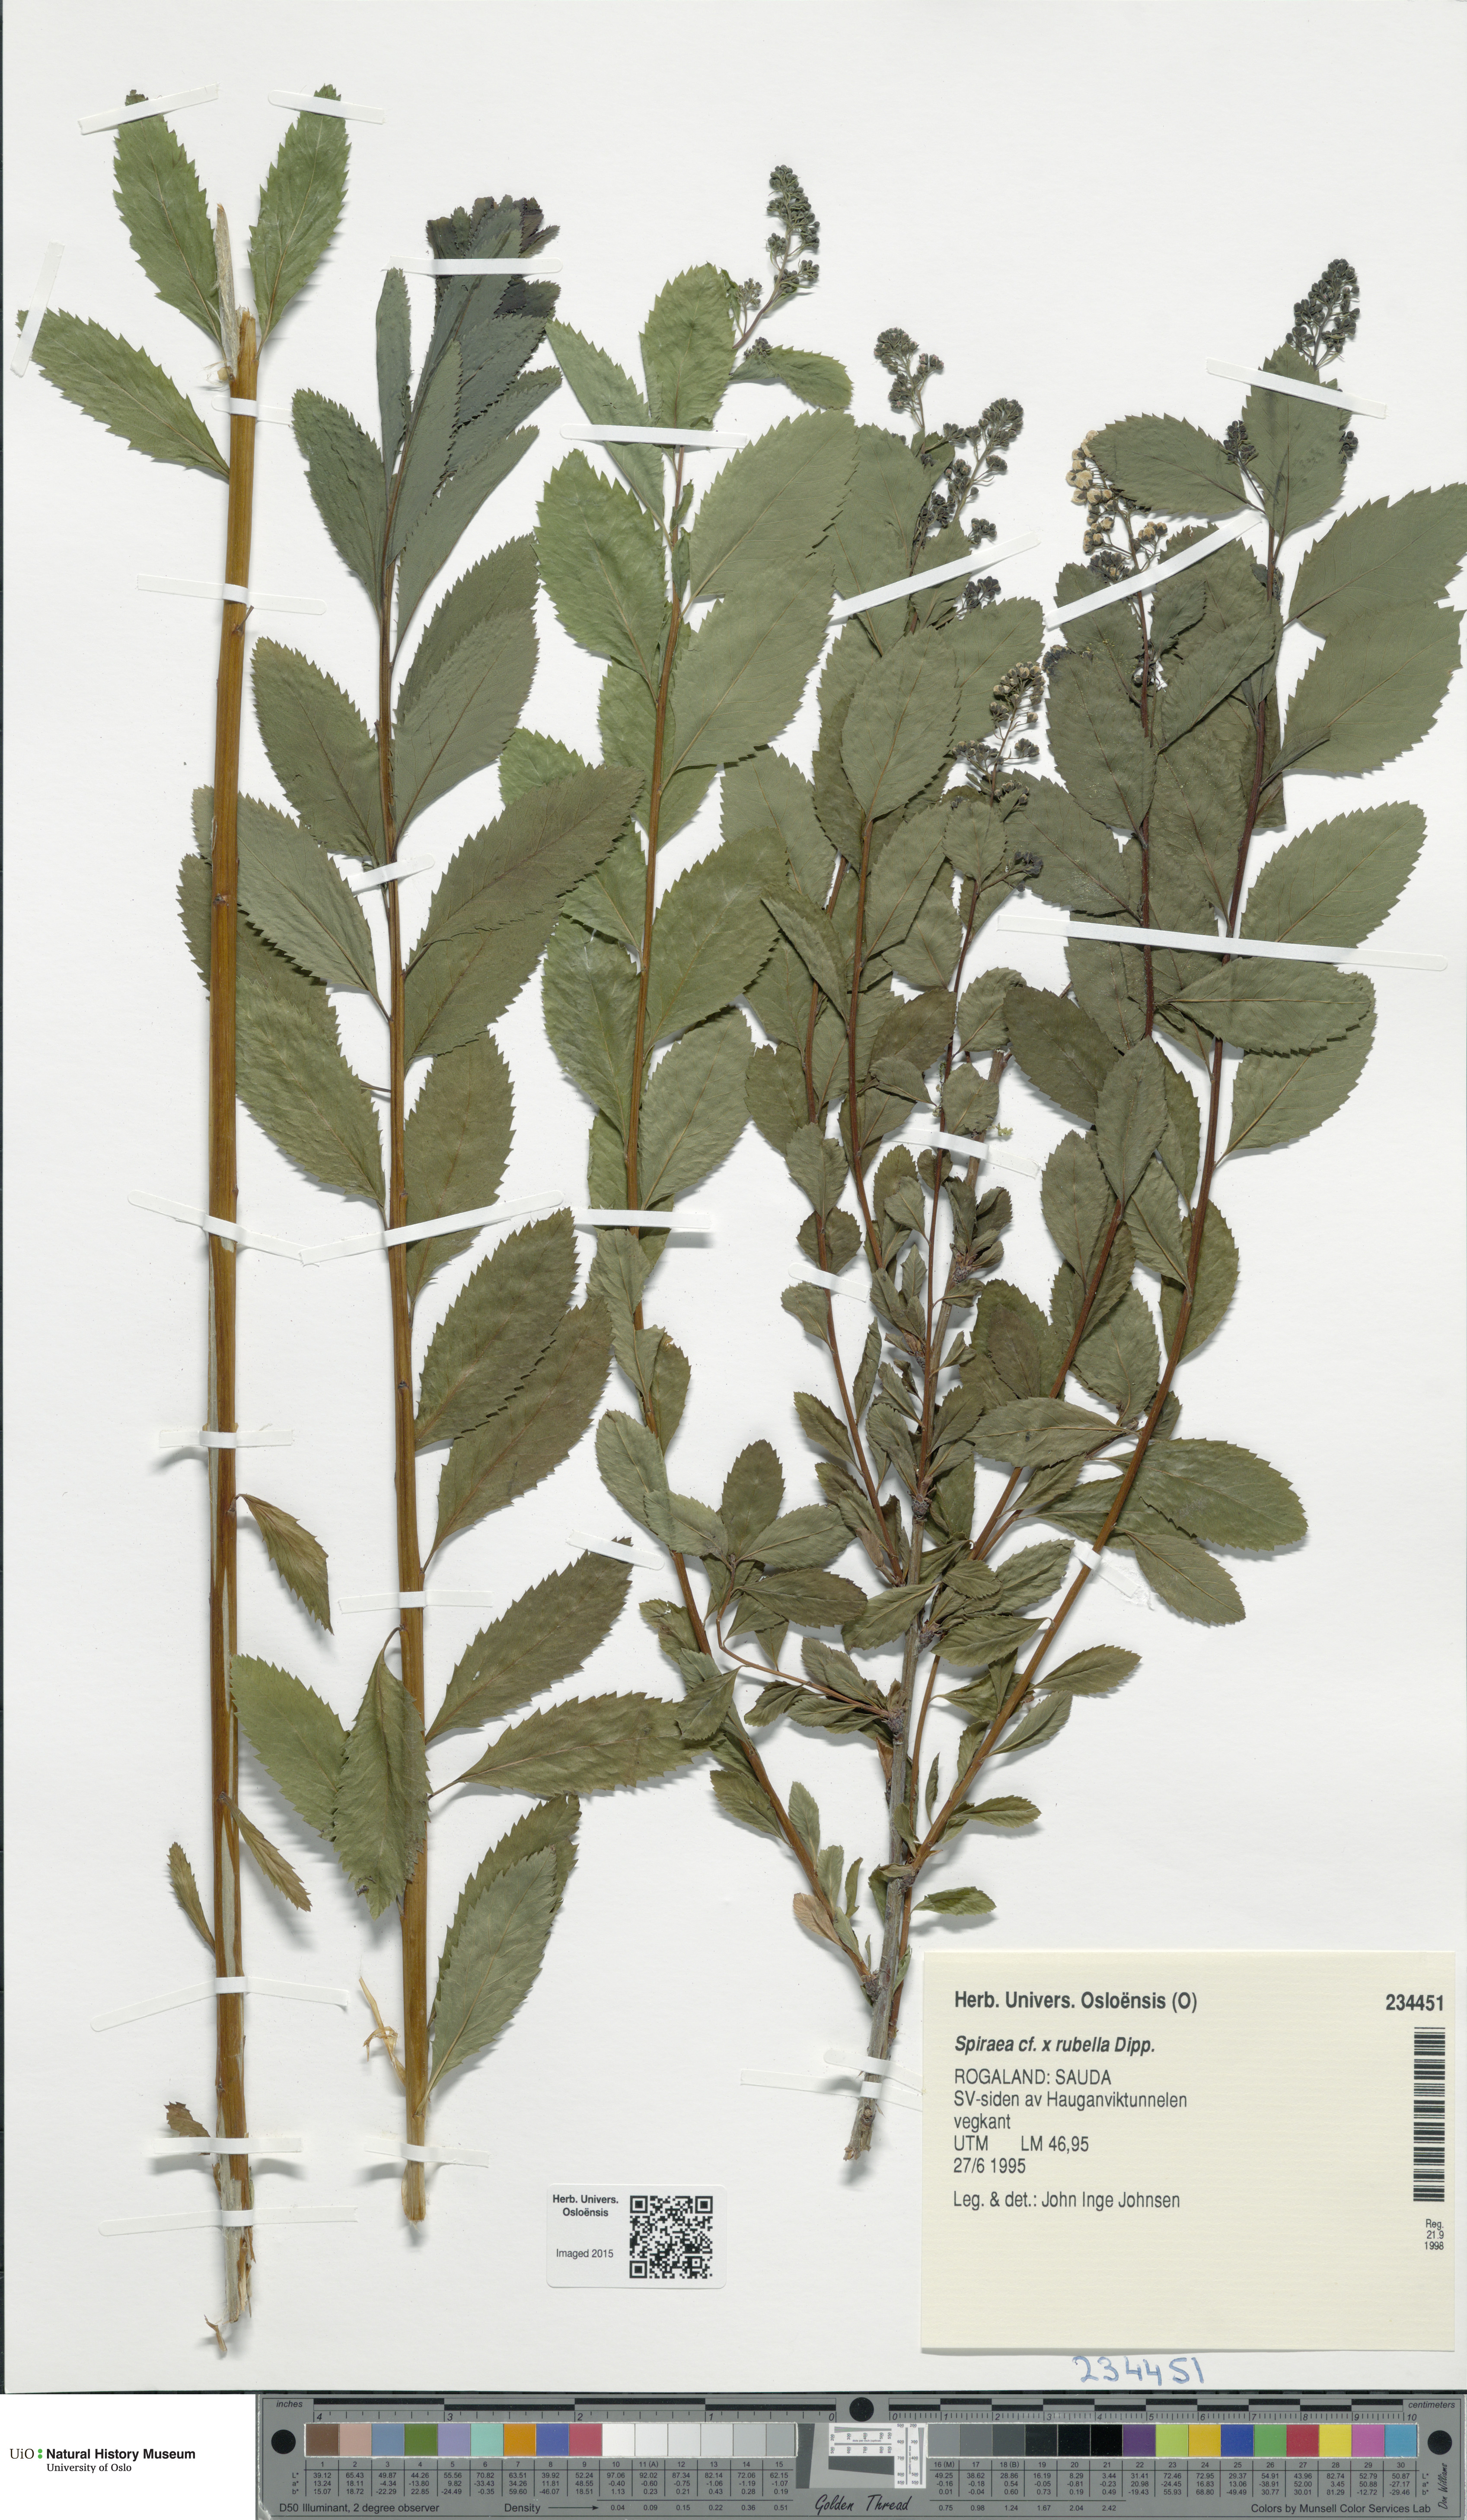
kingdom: Plantae
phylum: Tracheophyta
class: Magnoliopsida
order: Rosales
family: Rosaceae
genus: Spiraea
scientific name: Spiraea rosalba
